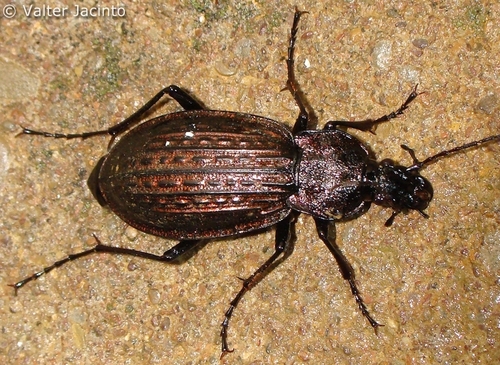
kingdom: Animalia
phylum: Arthropoda
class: Insecta
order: Coleoptera
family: Carabidae
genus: Carabus
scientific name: Carabus rugosus
